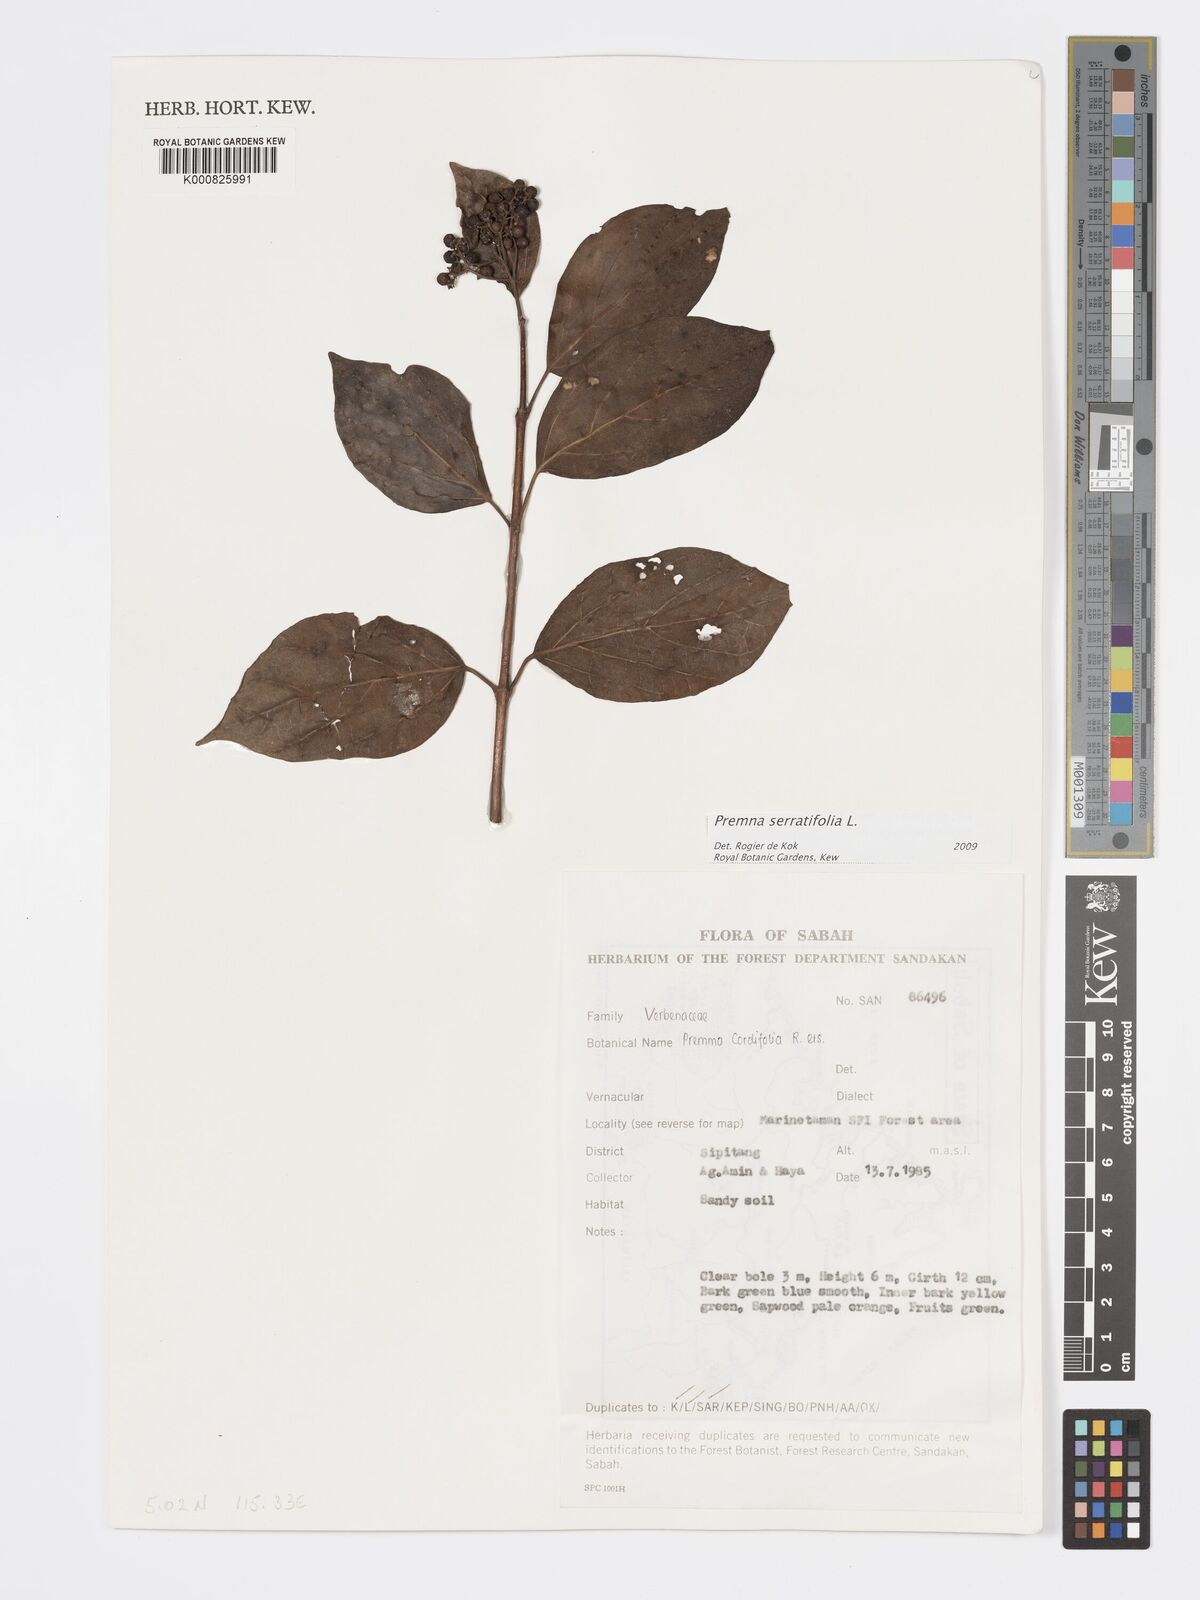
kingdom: Plantae
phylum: Tracheophyta
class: Magnoliopsida
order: Lamiales
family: Lamiaceae
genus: Premna
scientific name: Premna serratifolia
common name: Bastard guelder
